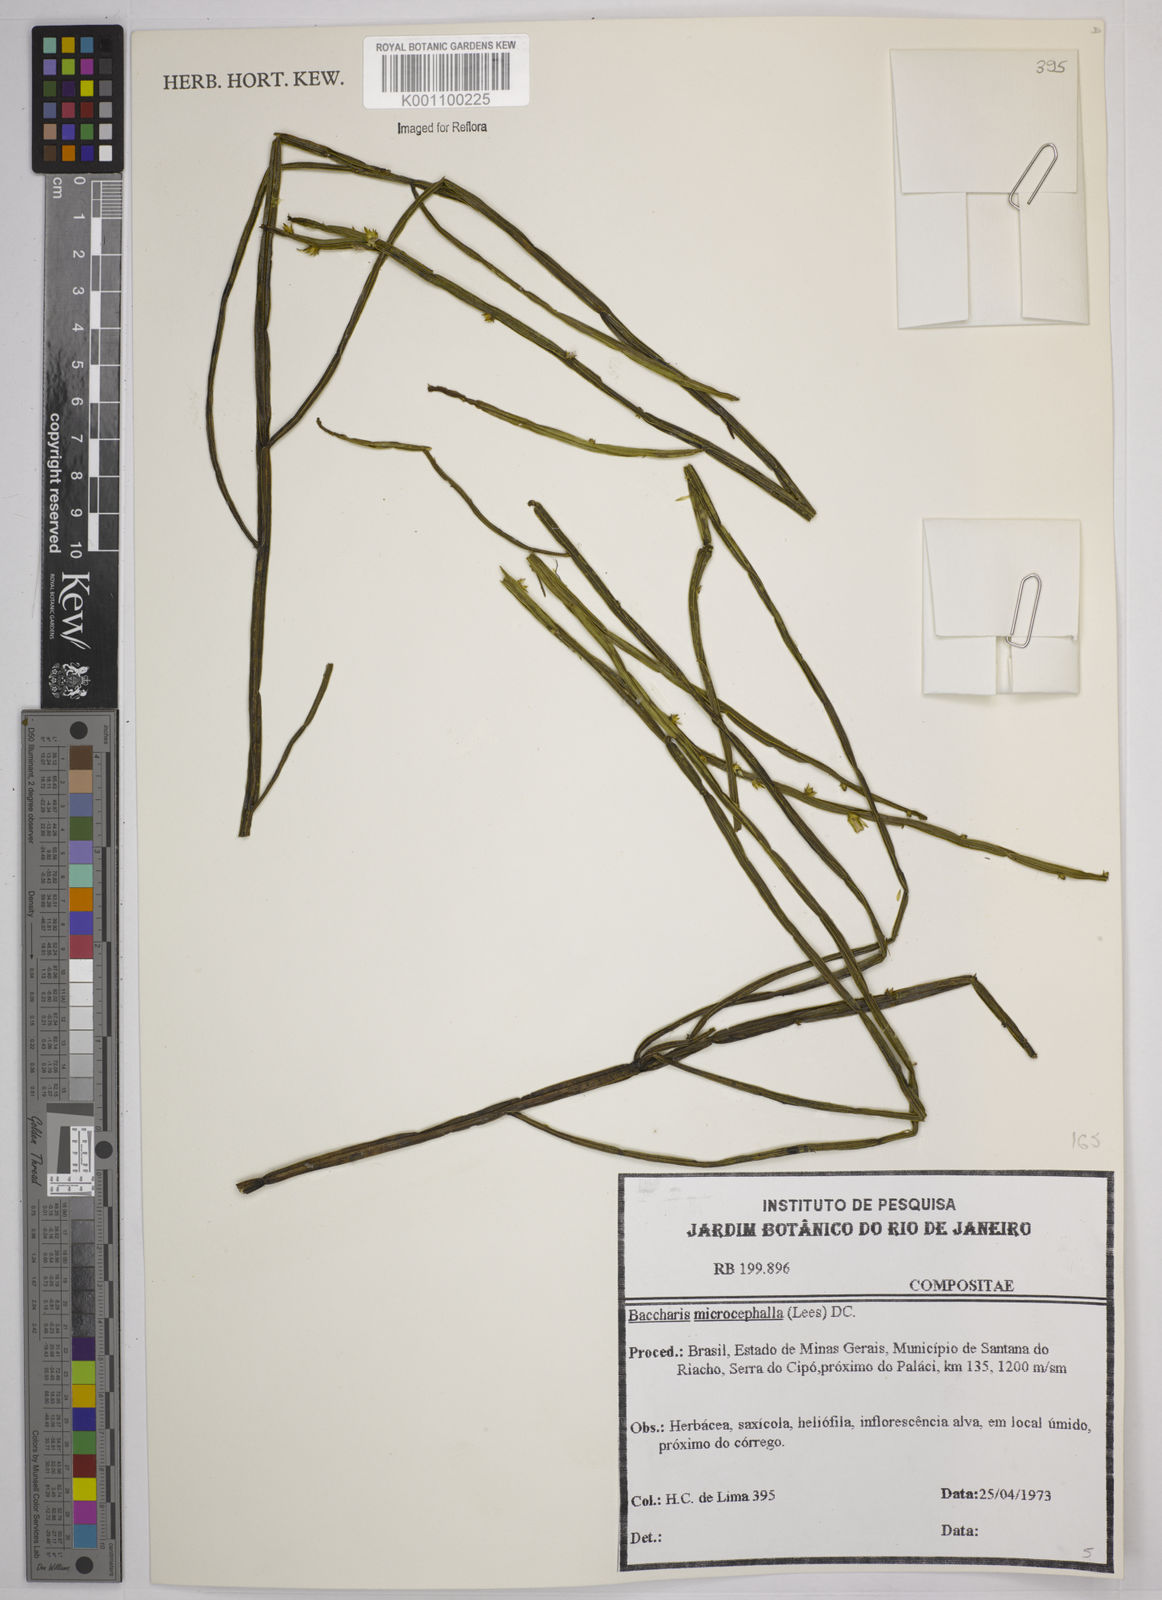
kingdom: Plantae
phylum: Tracheophyta
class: Magnoliopsida
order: Asterales
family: Asteraceae
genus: Baccharis
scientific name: Baccharis microcephala
